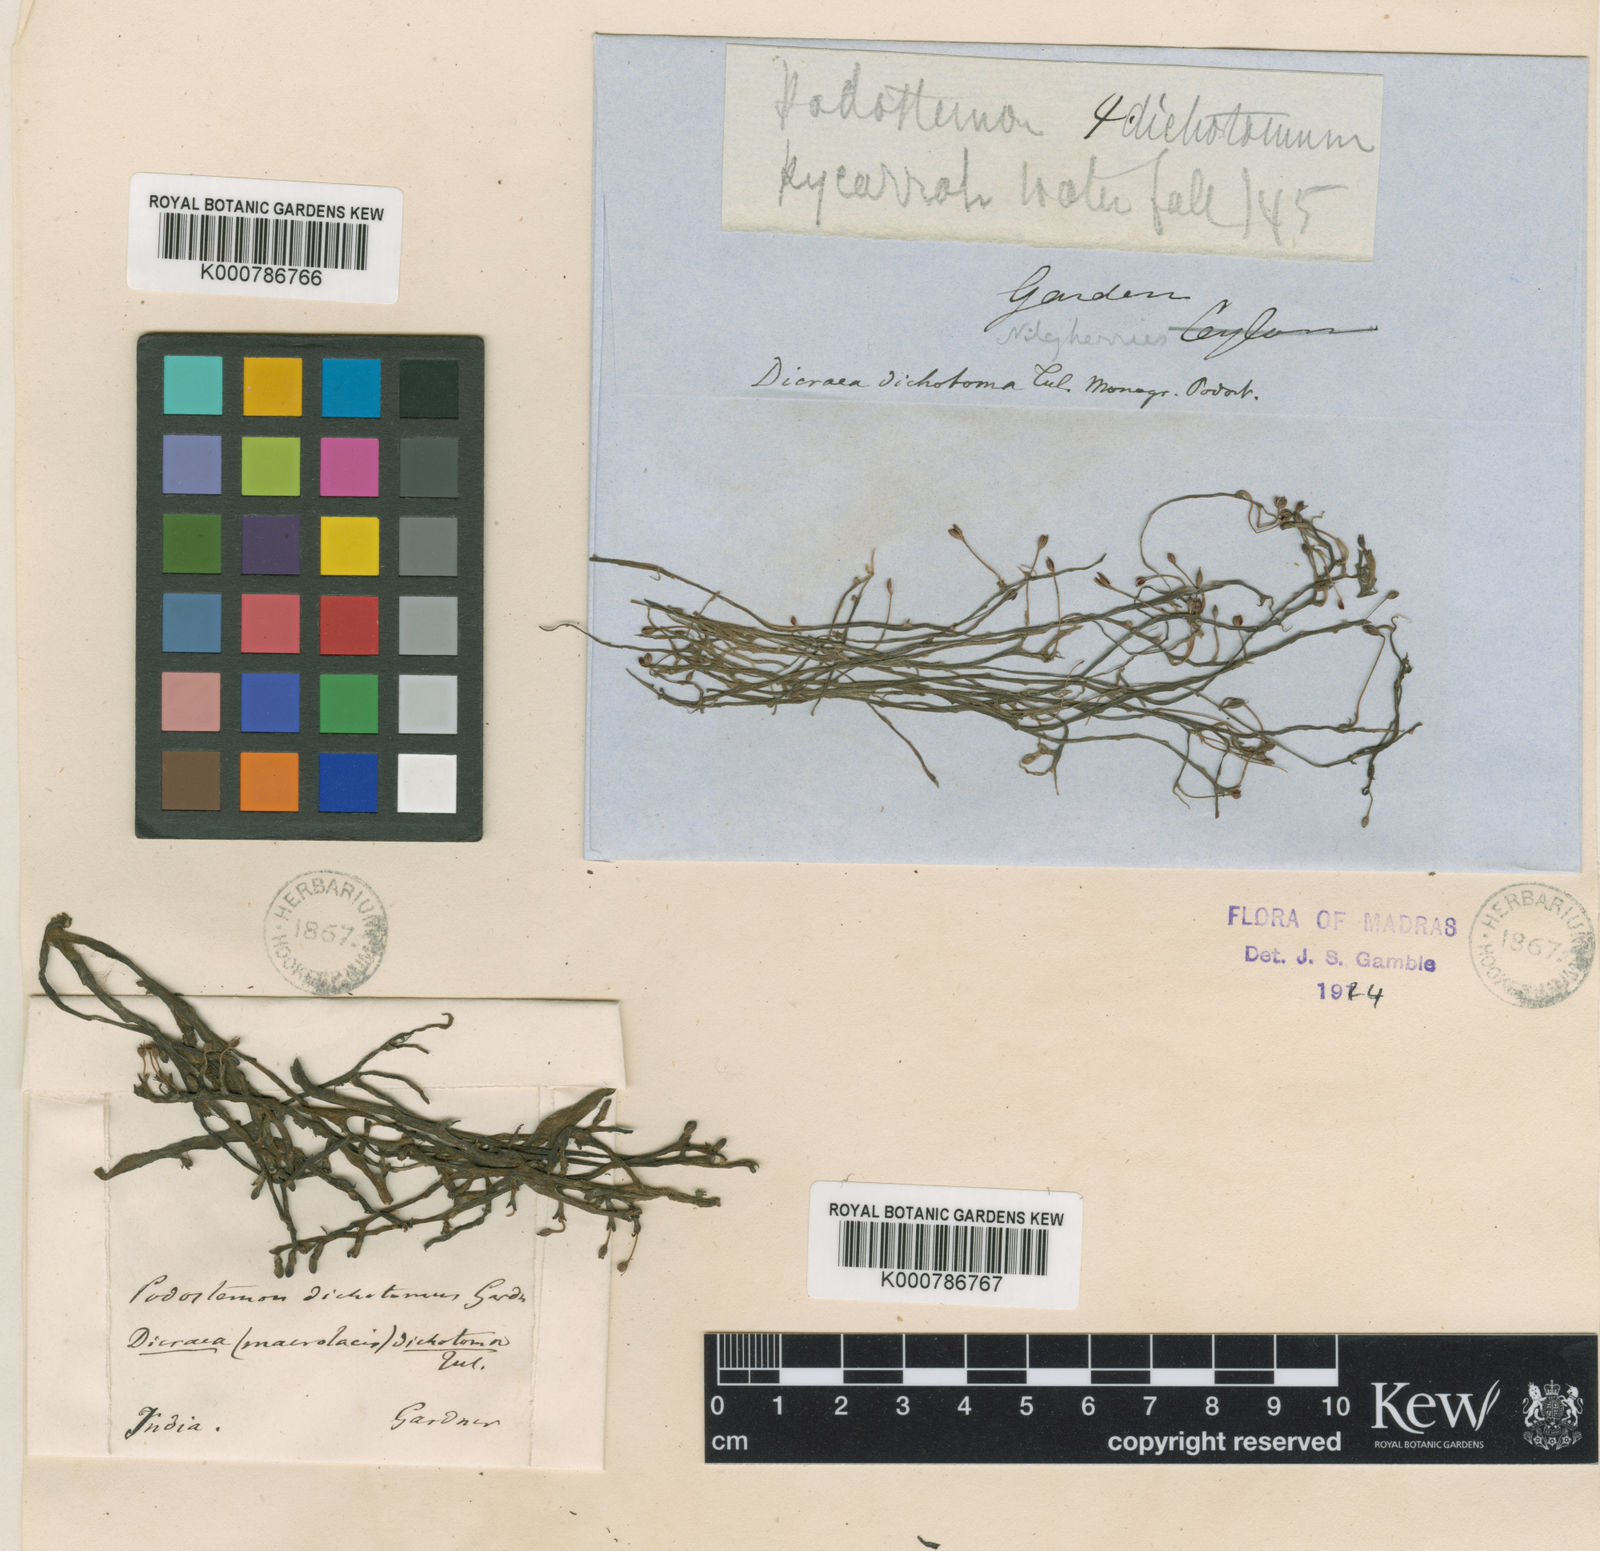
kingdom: Plantae
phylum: Tracheophyta
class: Magnoliopsida
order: Malpighiales
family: Podostemaceae
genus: Polypleurum
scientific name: Polypleurum dichotomum
